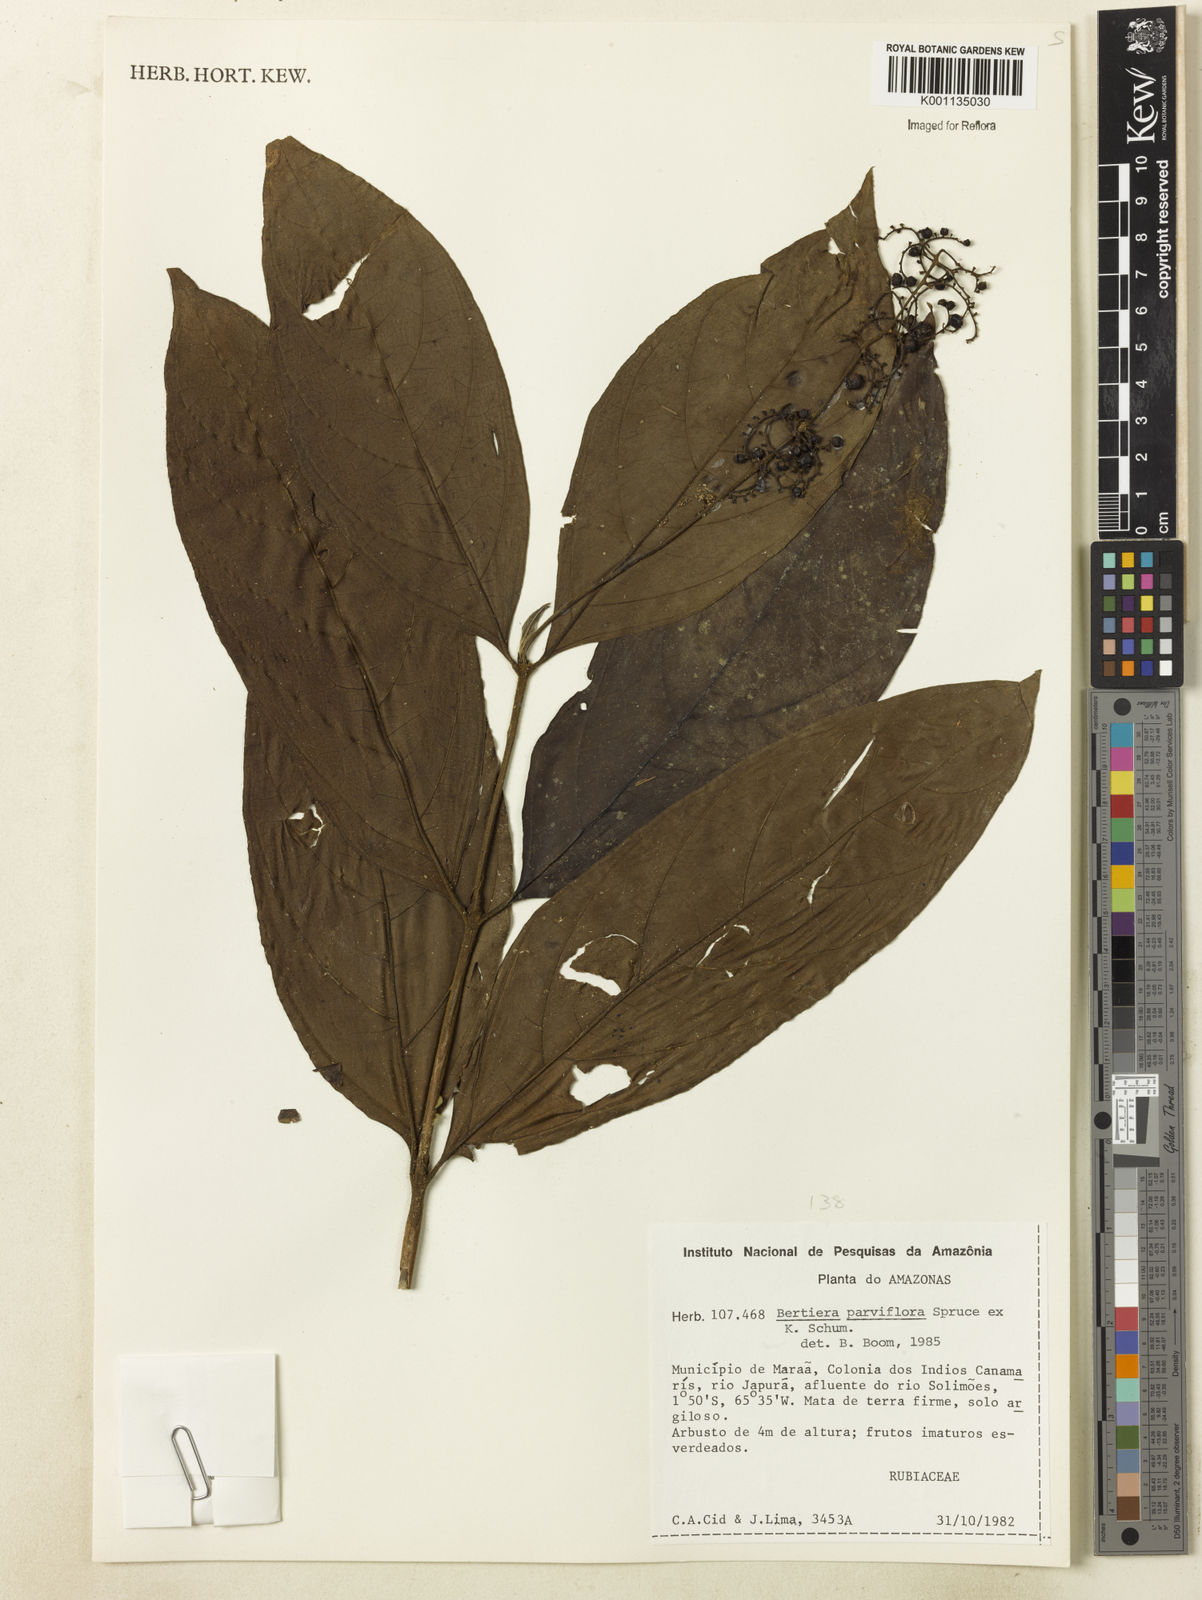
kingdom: Plantae
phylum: Tracheophyta
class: Magnoliopsida
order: Gentianales
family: Rubiaceae
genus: Bertiera
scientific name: Bertiera parviflora
